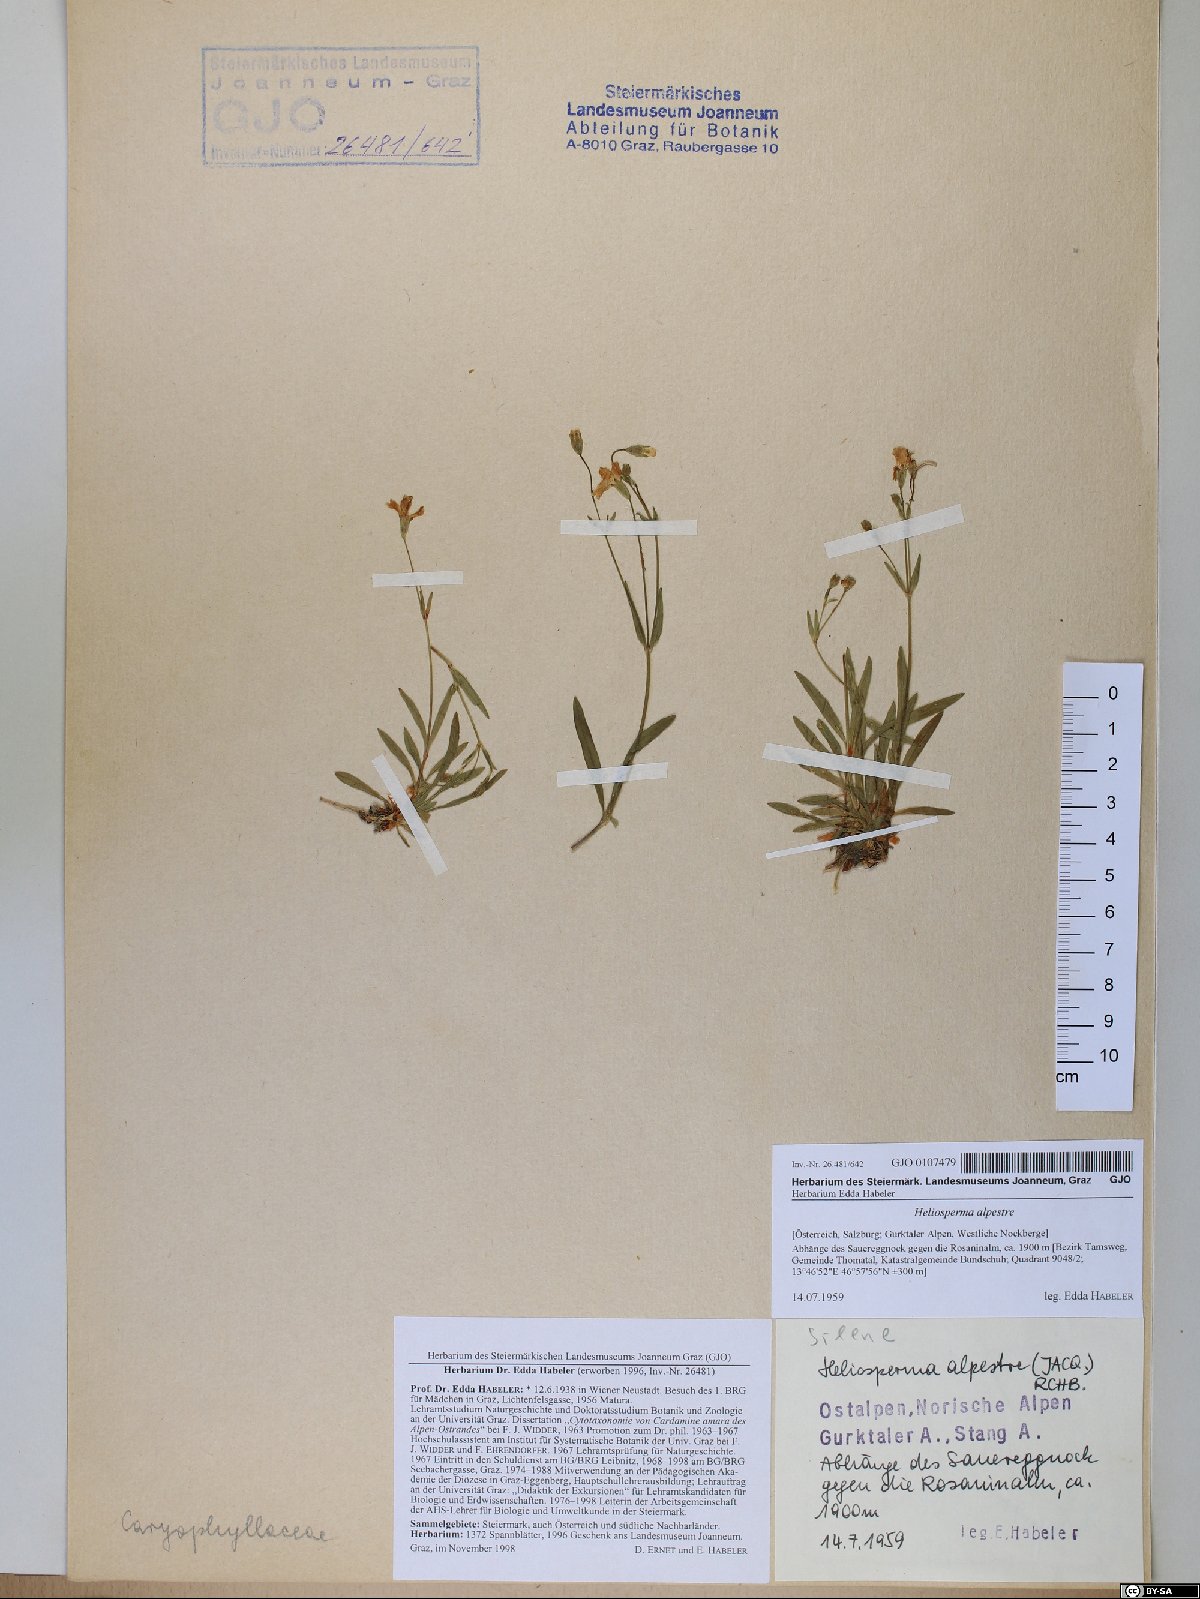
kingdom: Plantae
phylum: Tracheophyta
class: Magnoliopsida
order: Caryophyllales
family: Caryophyllaceae
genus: Heliosperma
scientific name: Heliosperma alpestre
